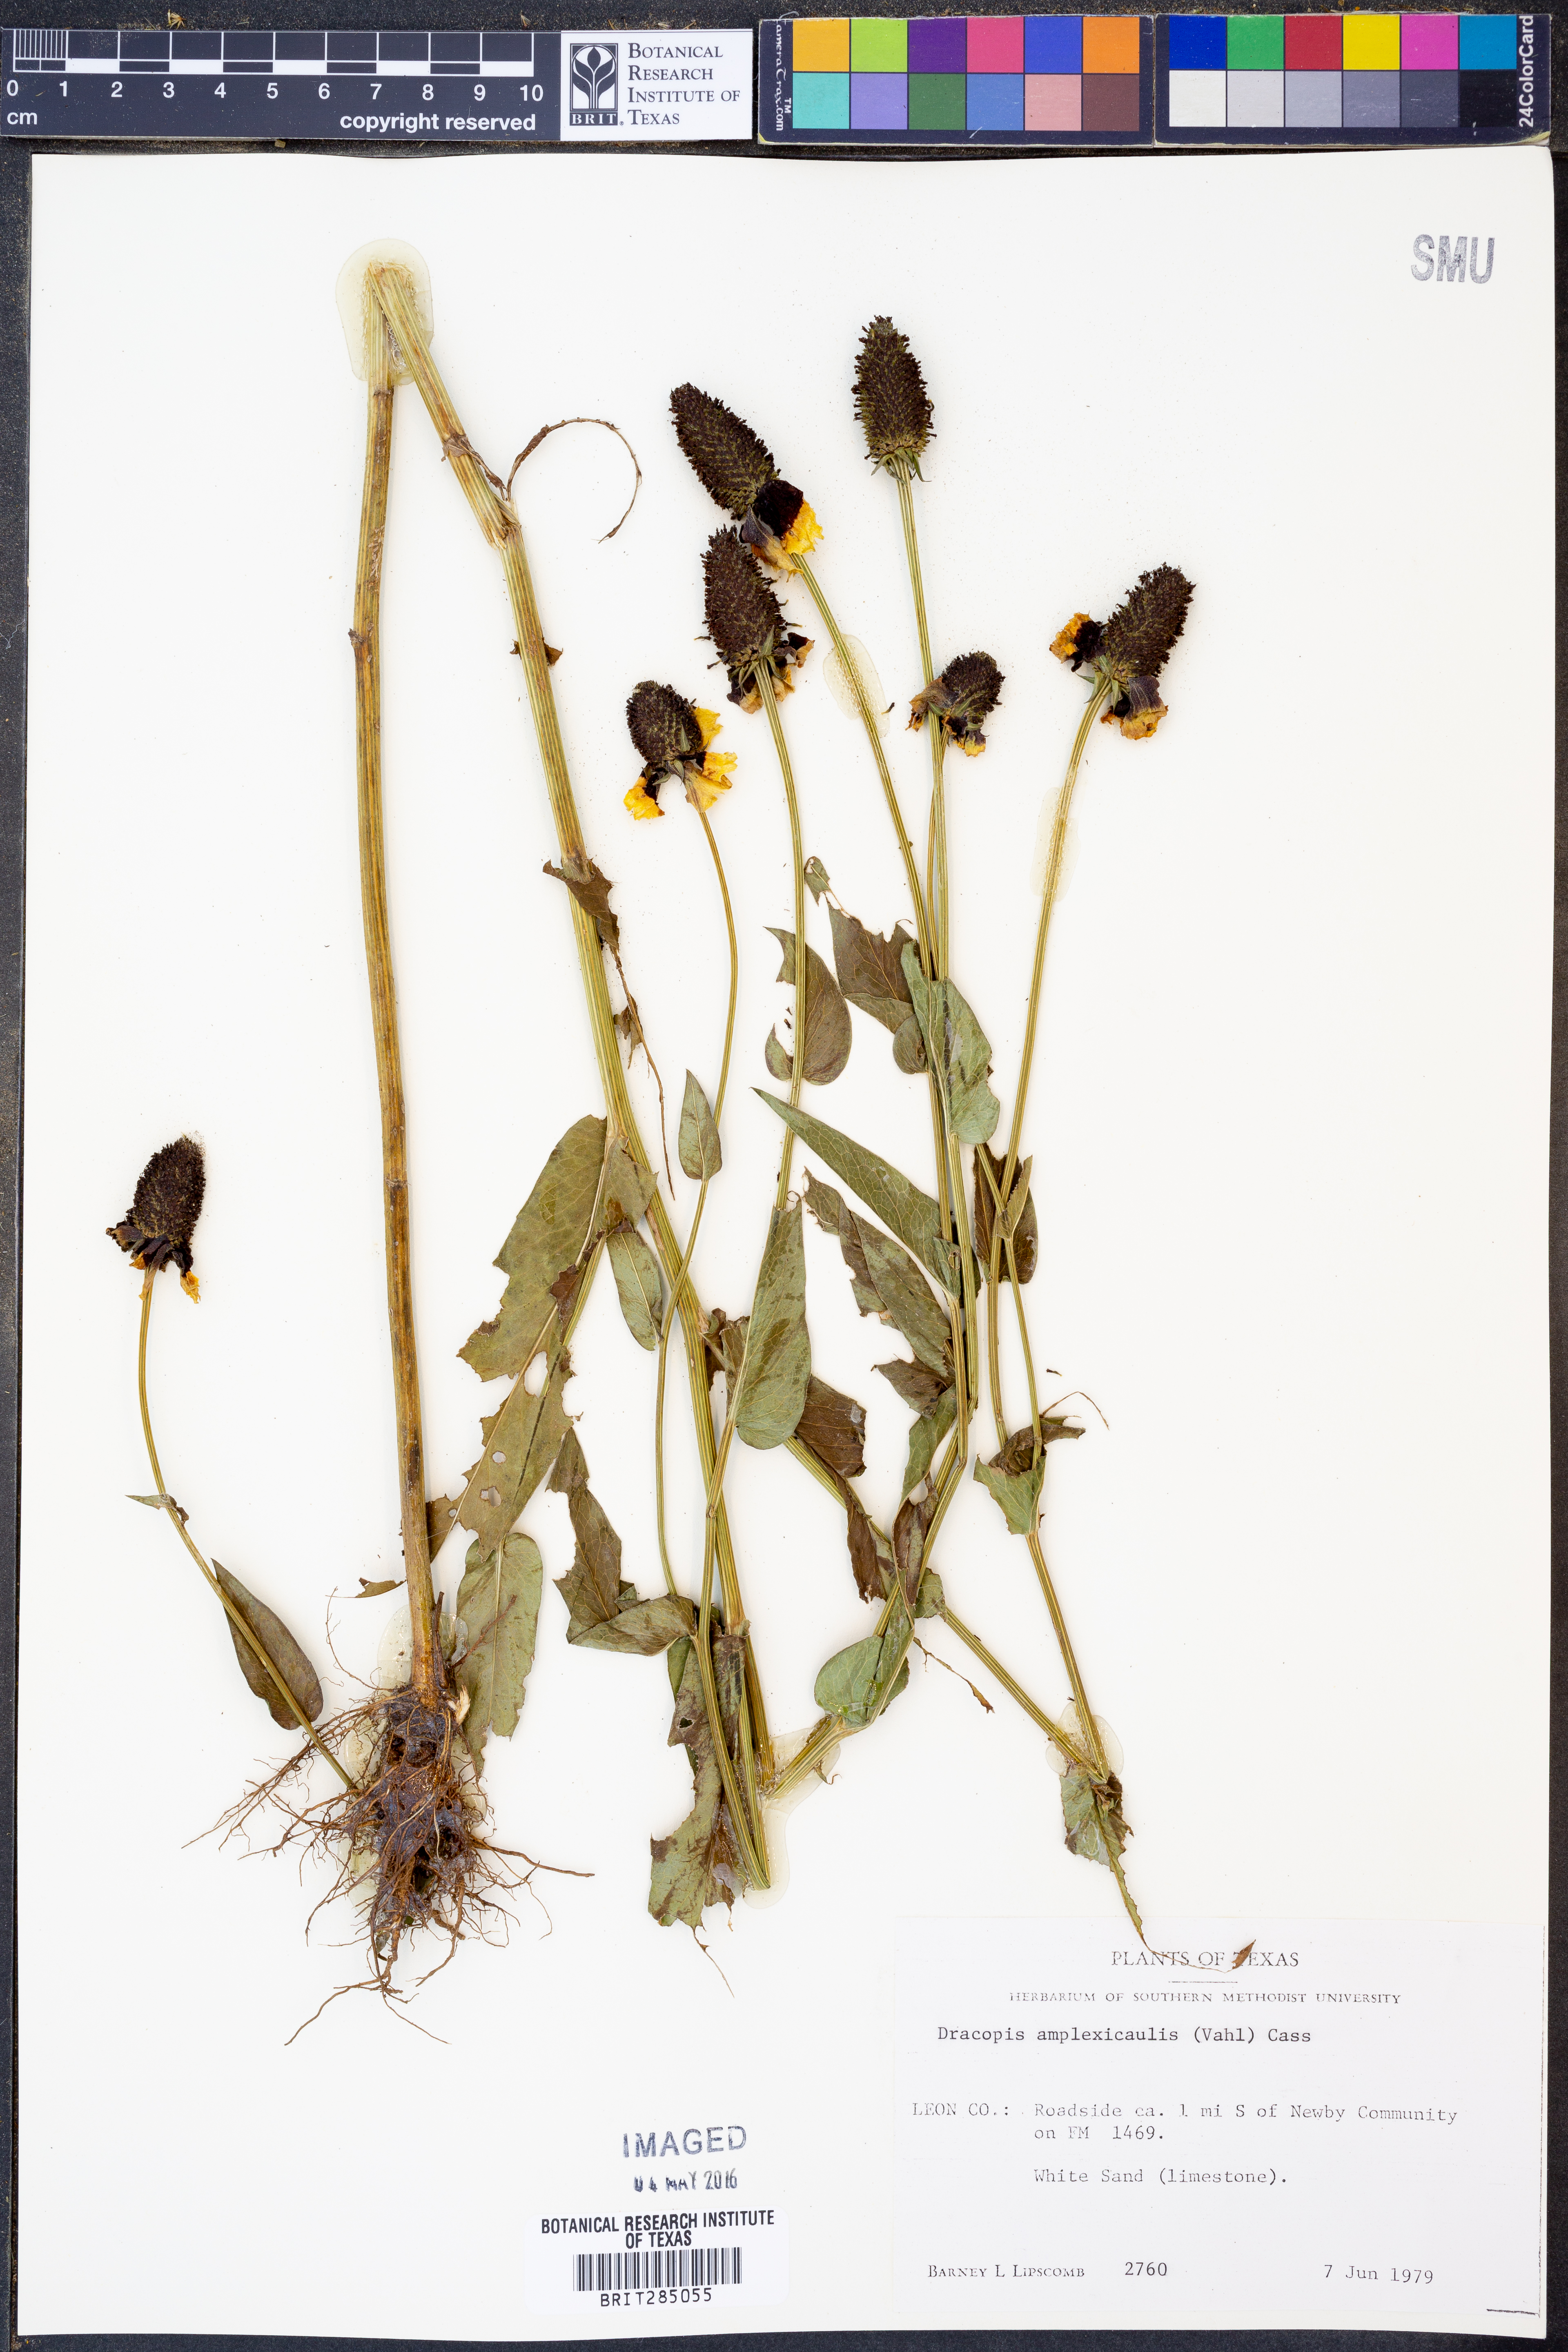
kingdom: Plantae
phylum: Tracheophyta
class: Magnoliopsida
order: Asterales
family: Asteraceae
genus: Rudbeckia
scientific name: Rudbeckia amplexicaulis
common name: Clasping-leaf coneflower
